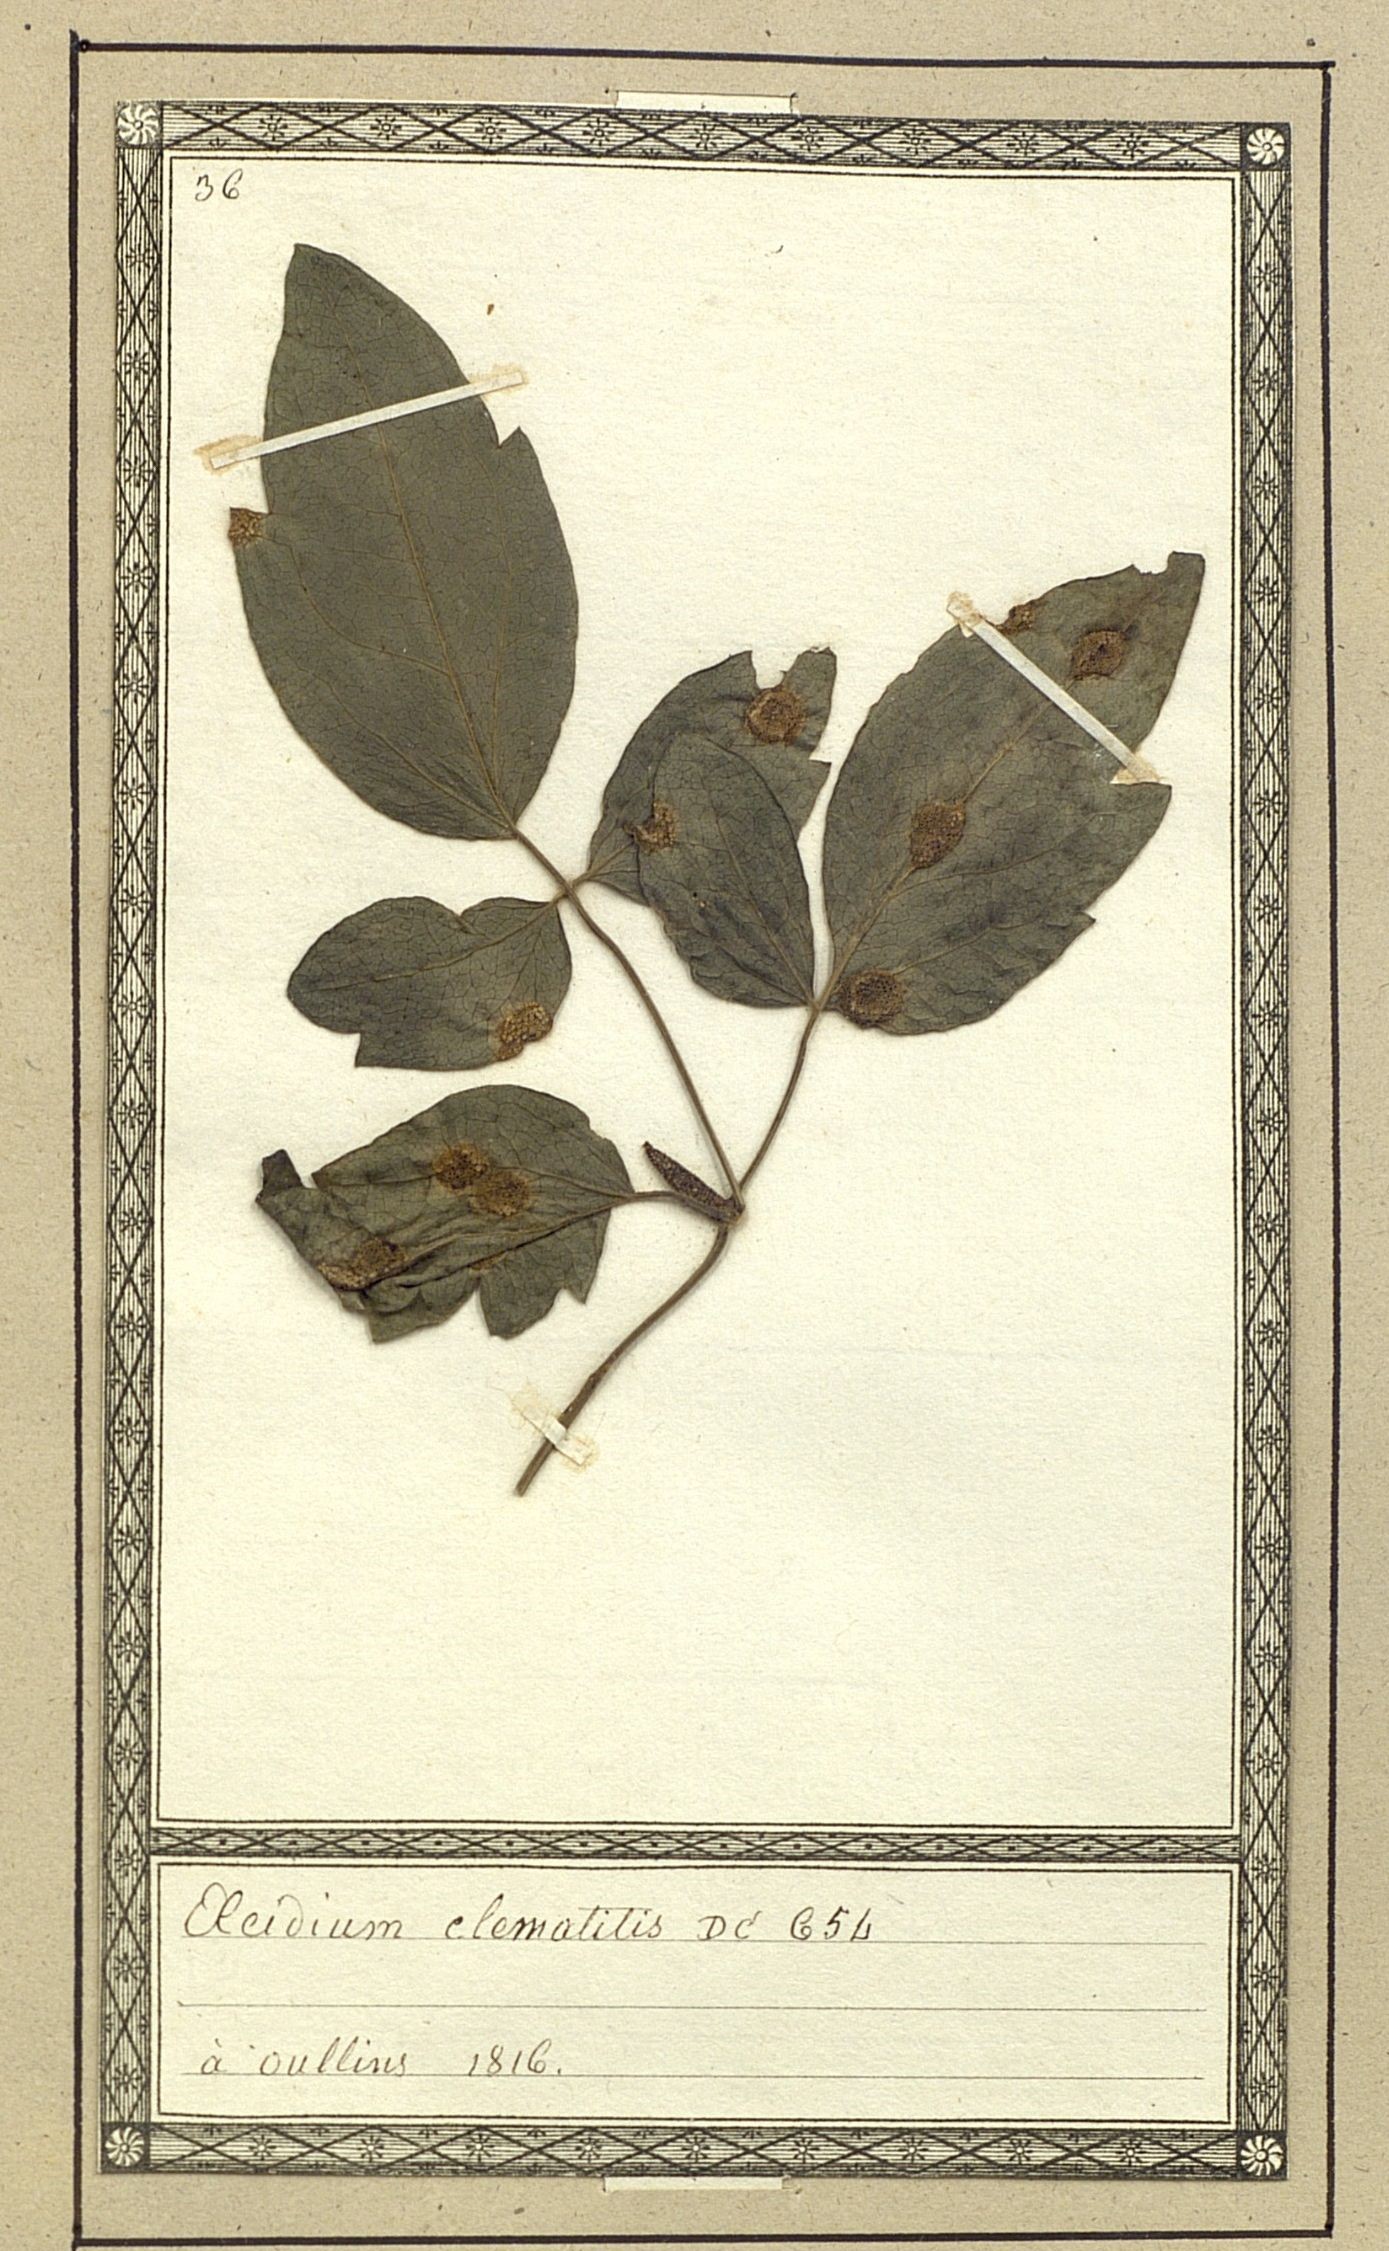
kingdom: Fungi
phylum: Basidiomycota
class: Pucciniomycetes
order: Pucciniales
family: Pucciniaceae
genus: Puccinia
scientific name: Puccinia clematidis
